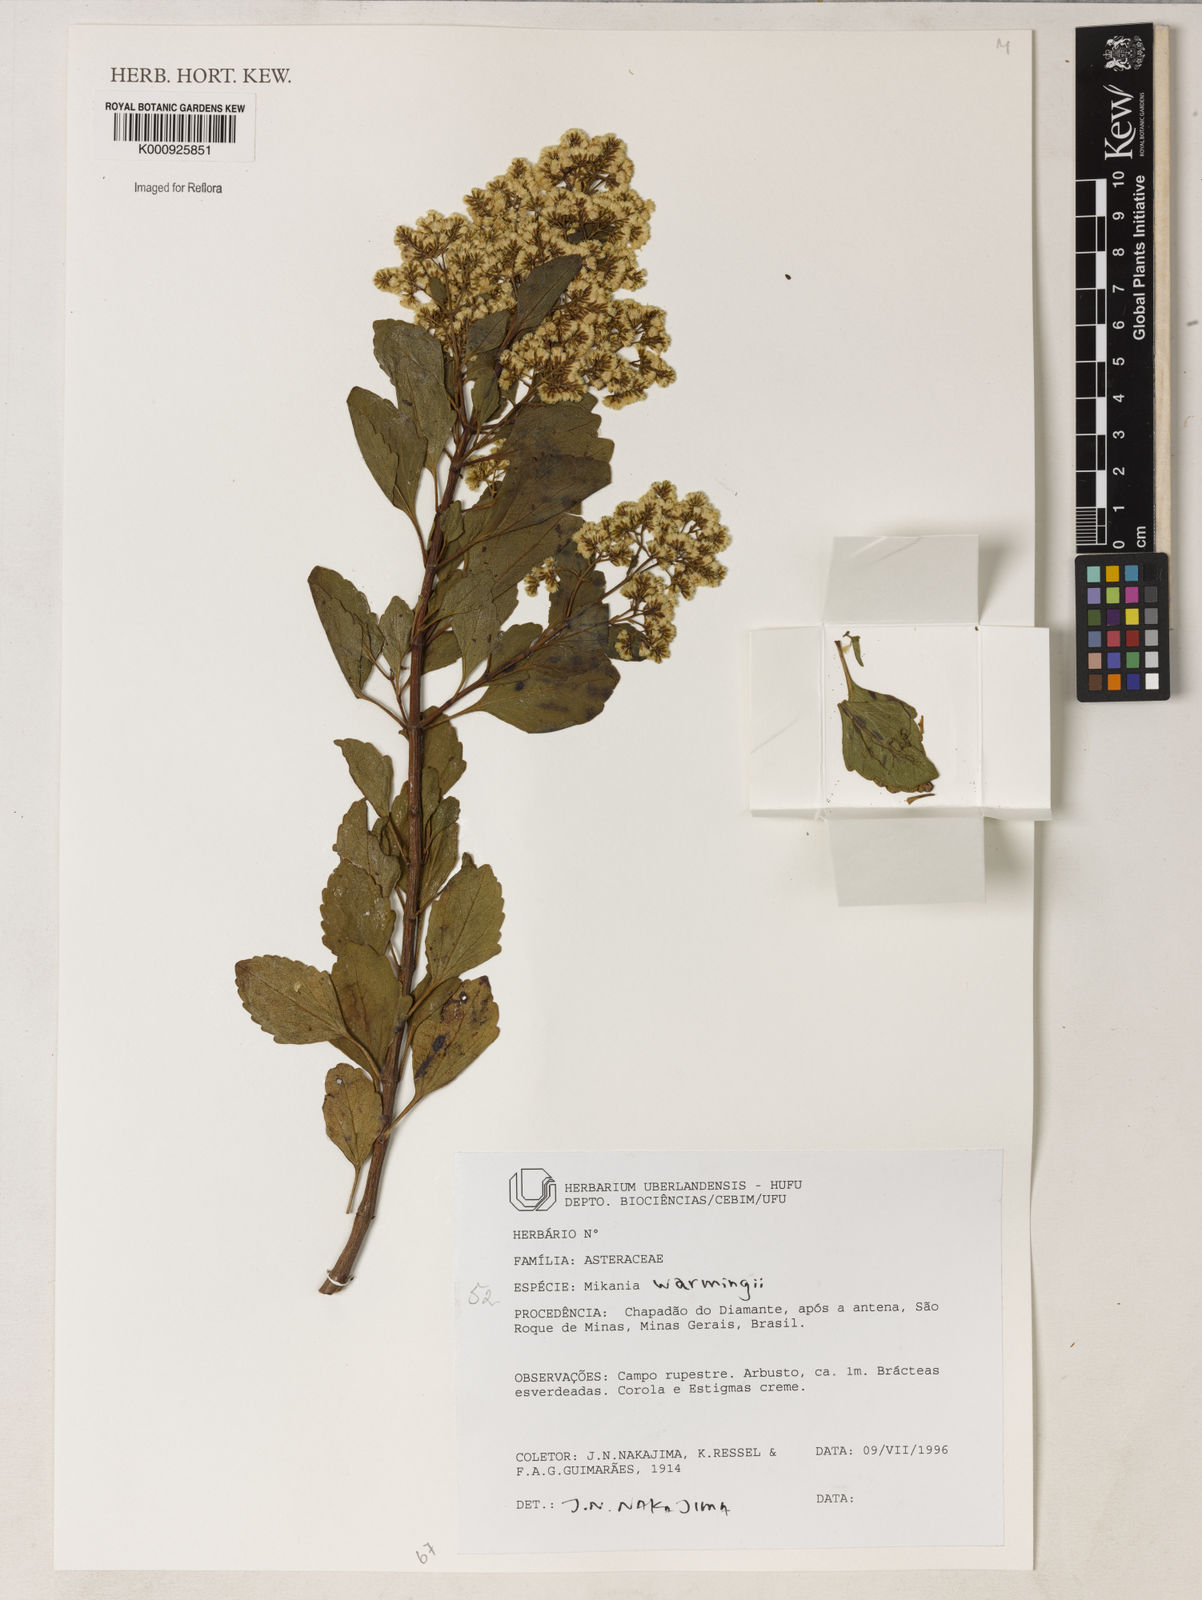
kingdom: Plantae
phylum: Tracheophyta
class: Magnoliopsida
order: Asterales
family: Asteraceae
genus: Mikania
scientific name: Mikania
